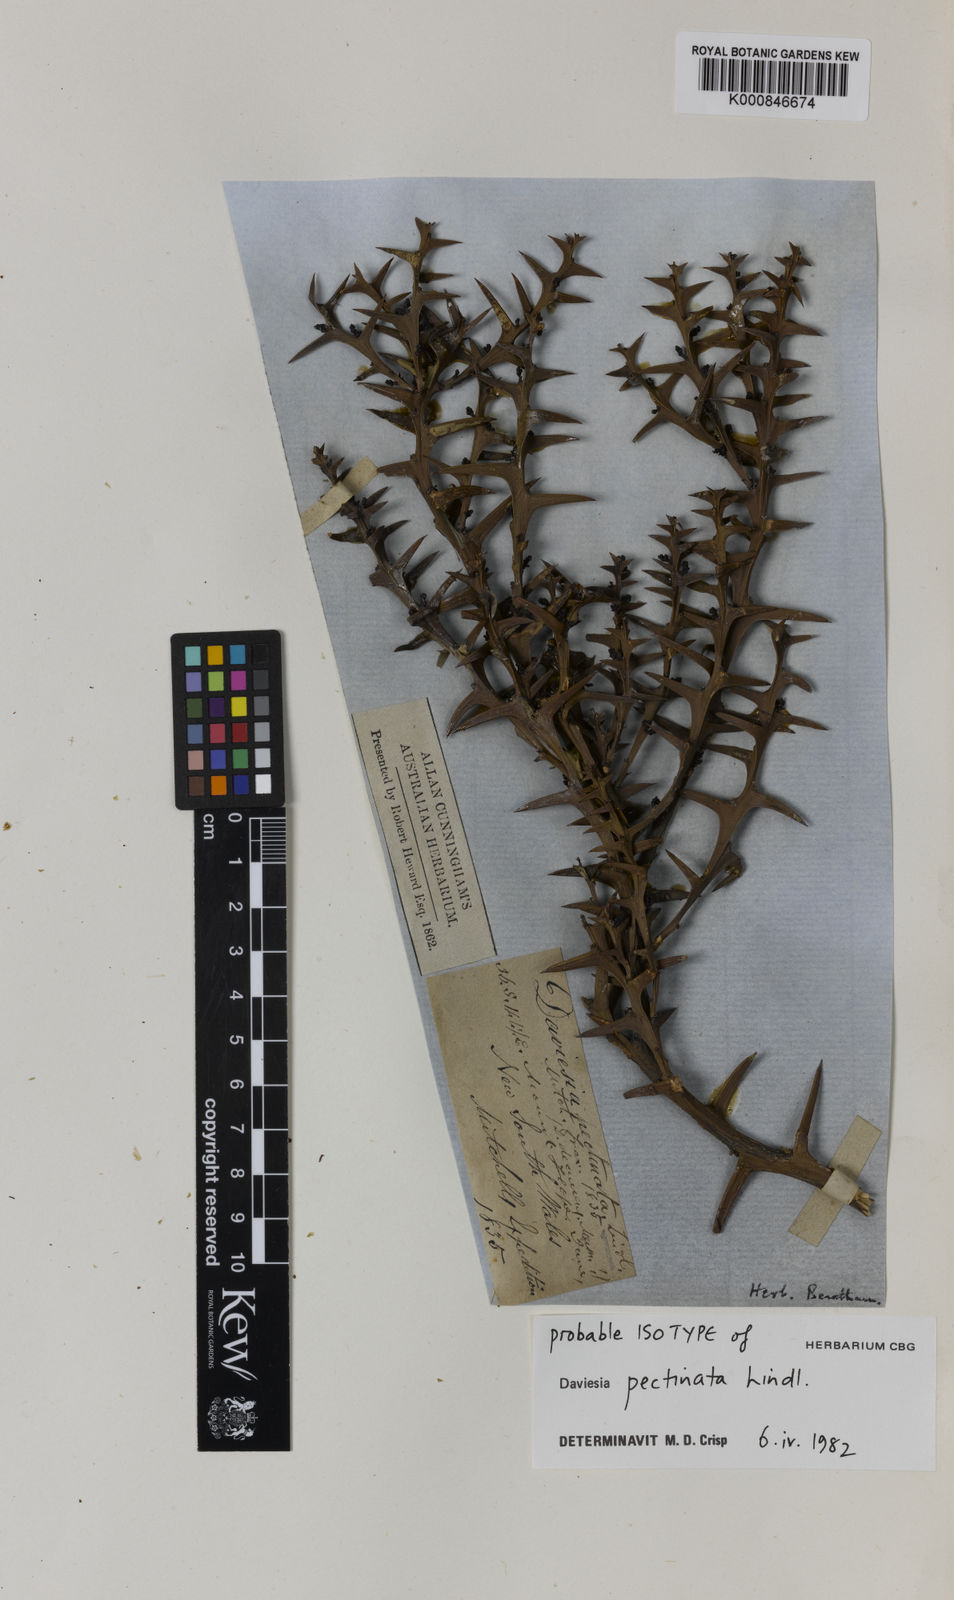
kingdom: Plantae
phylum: Tracheophyta
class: Magnoliopsida
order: Fabales
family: Fabaceae
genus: Daviesia
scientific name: Daviesia pectinata
